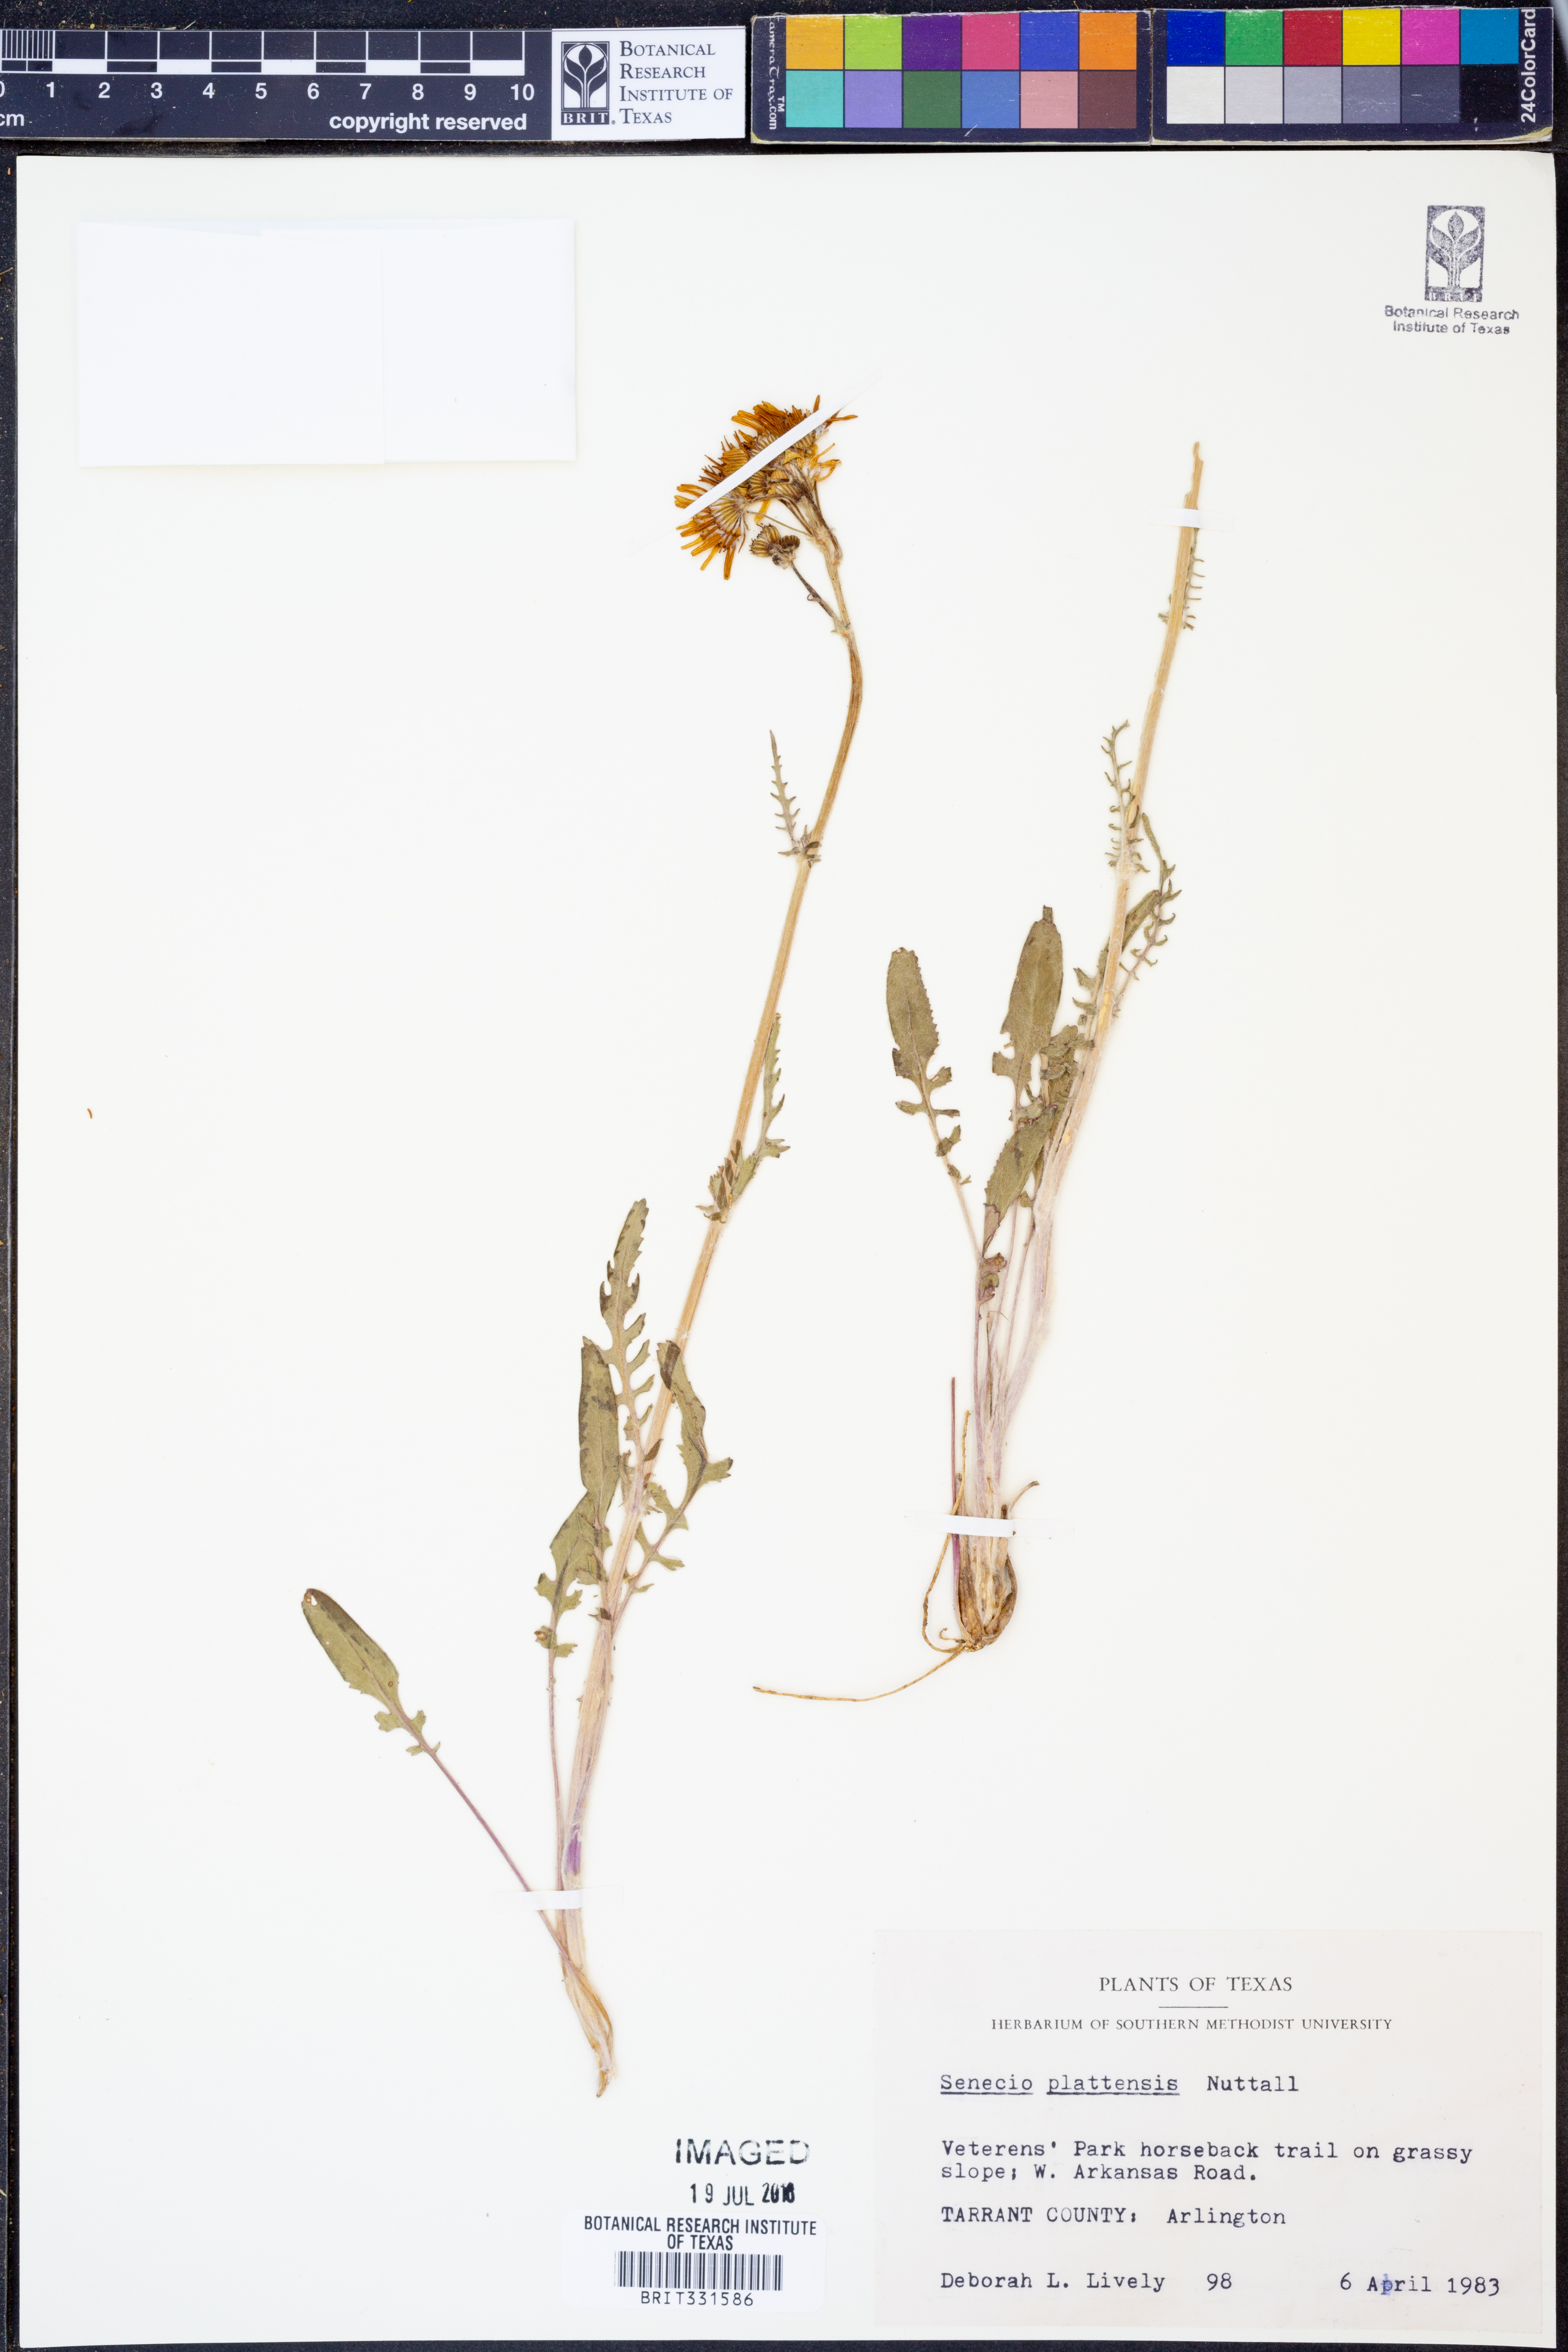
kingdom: Plantae
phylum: Tracheophyta
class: Magnoliopsida
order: Asterales
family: Asteraceae
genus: Packera
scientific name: Packera plattensis
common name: Prairie groundsel
